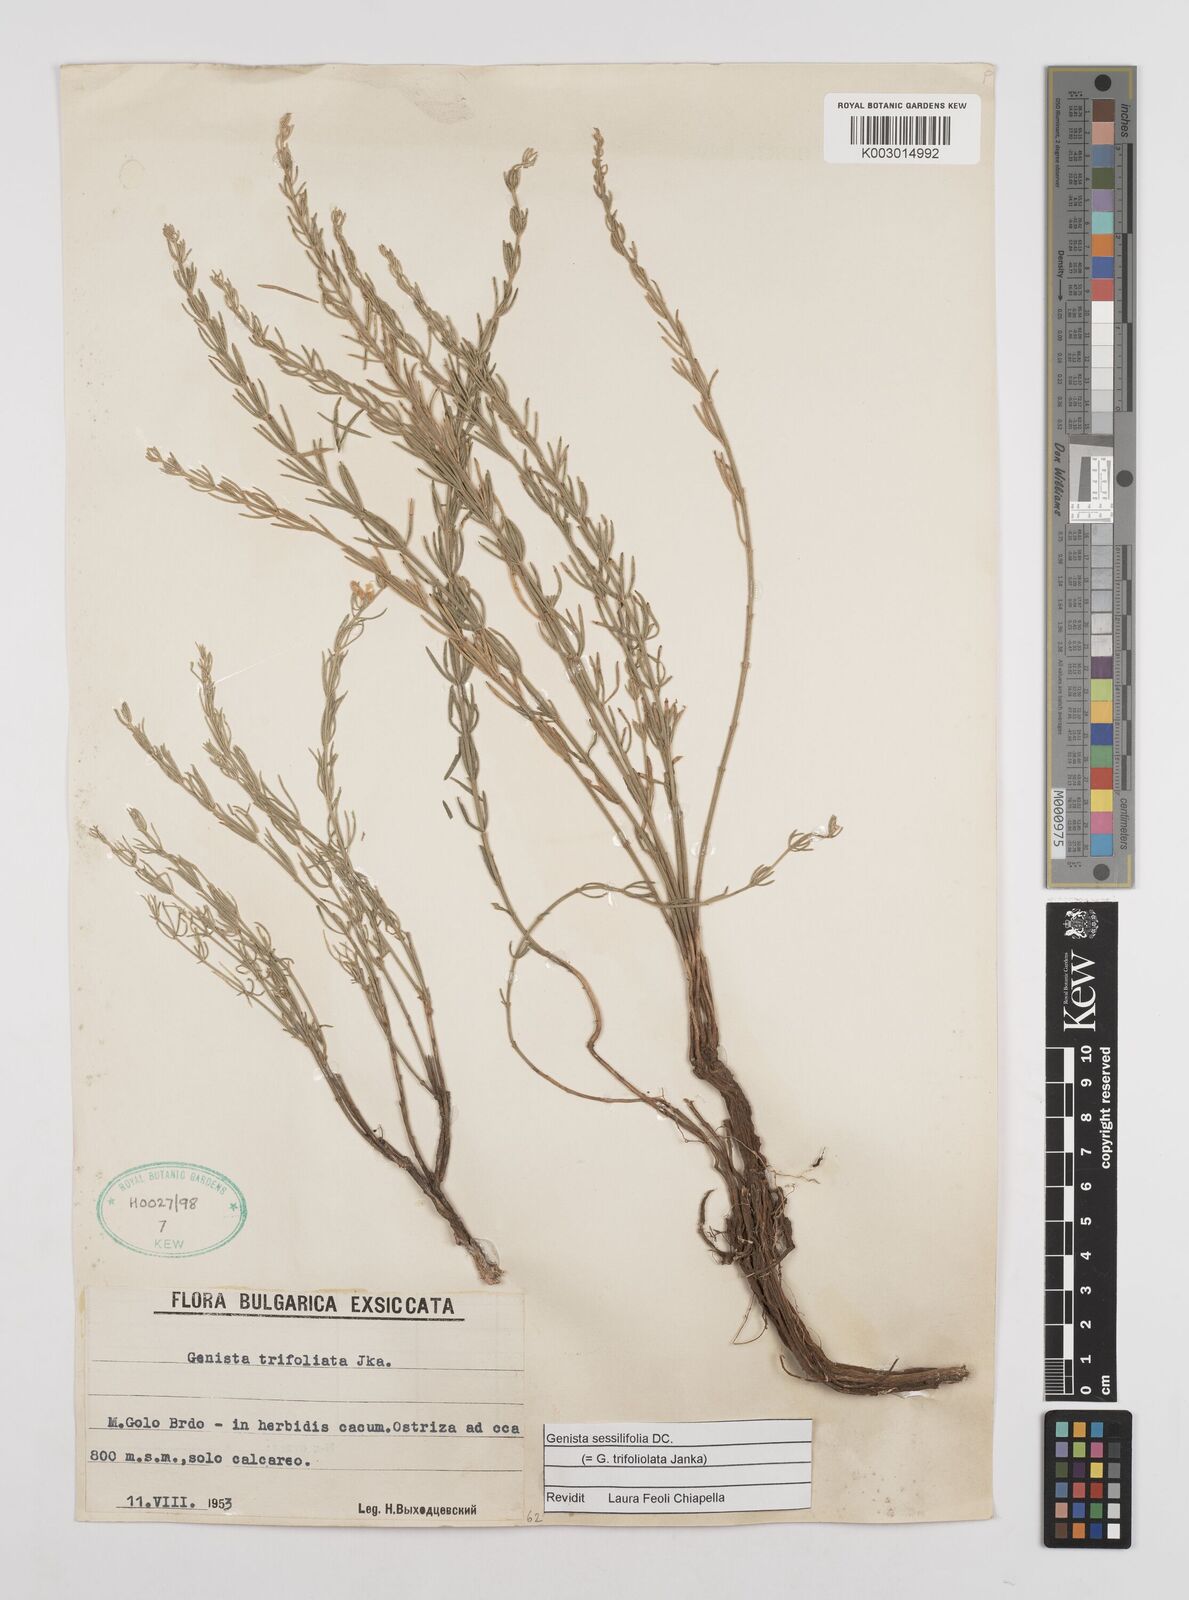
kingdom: Plantae
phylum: Tracheophyta
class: Magnoliopsida
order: Fabales
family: Fabaceae
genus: Genista
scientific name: Genista sessilifolia
